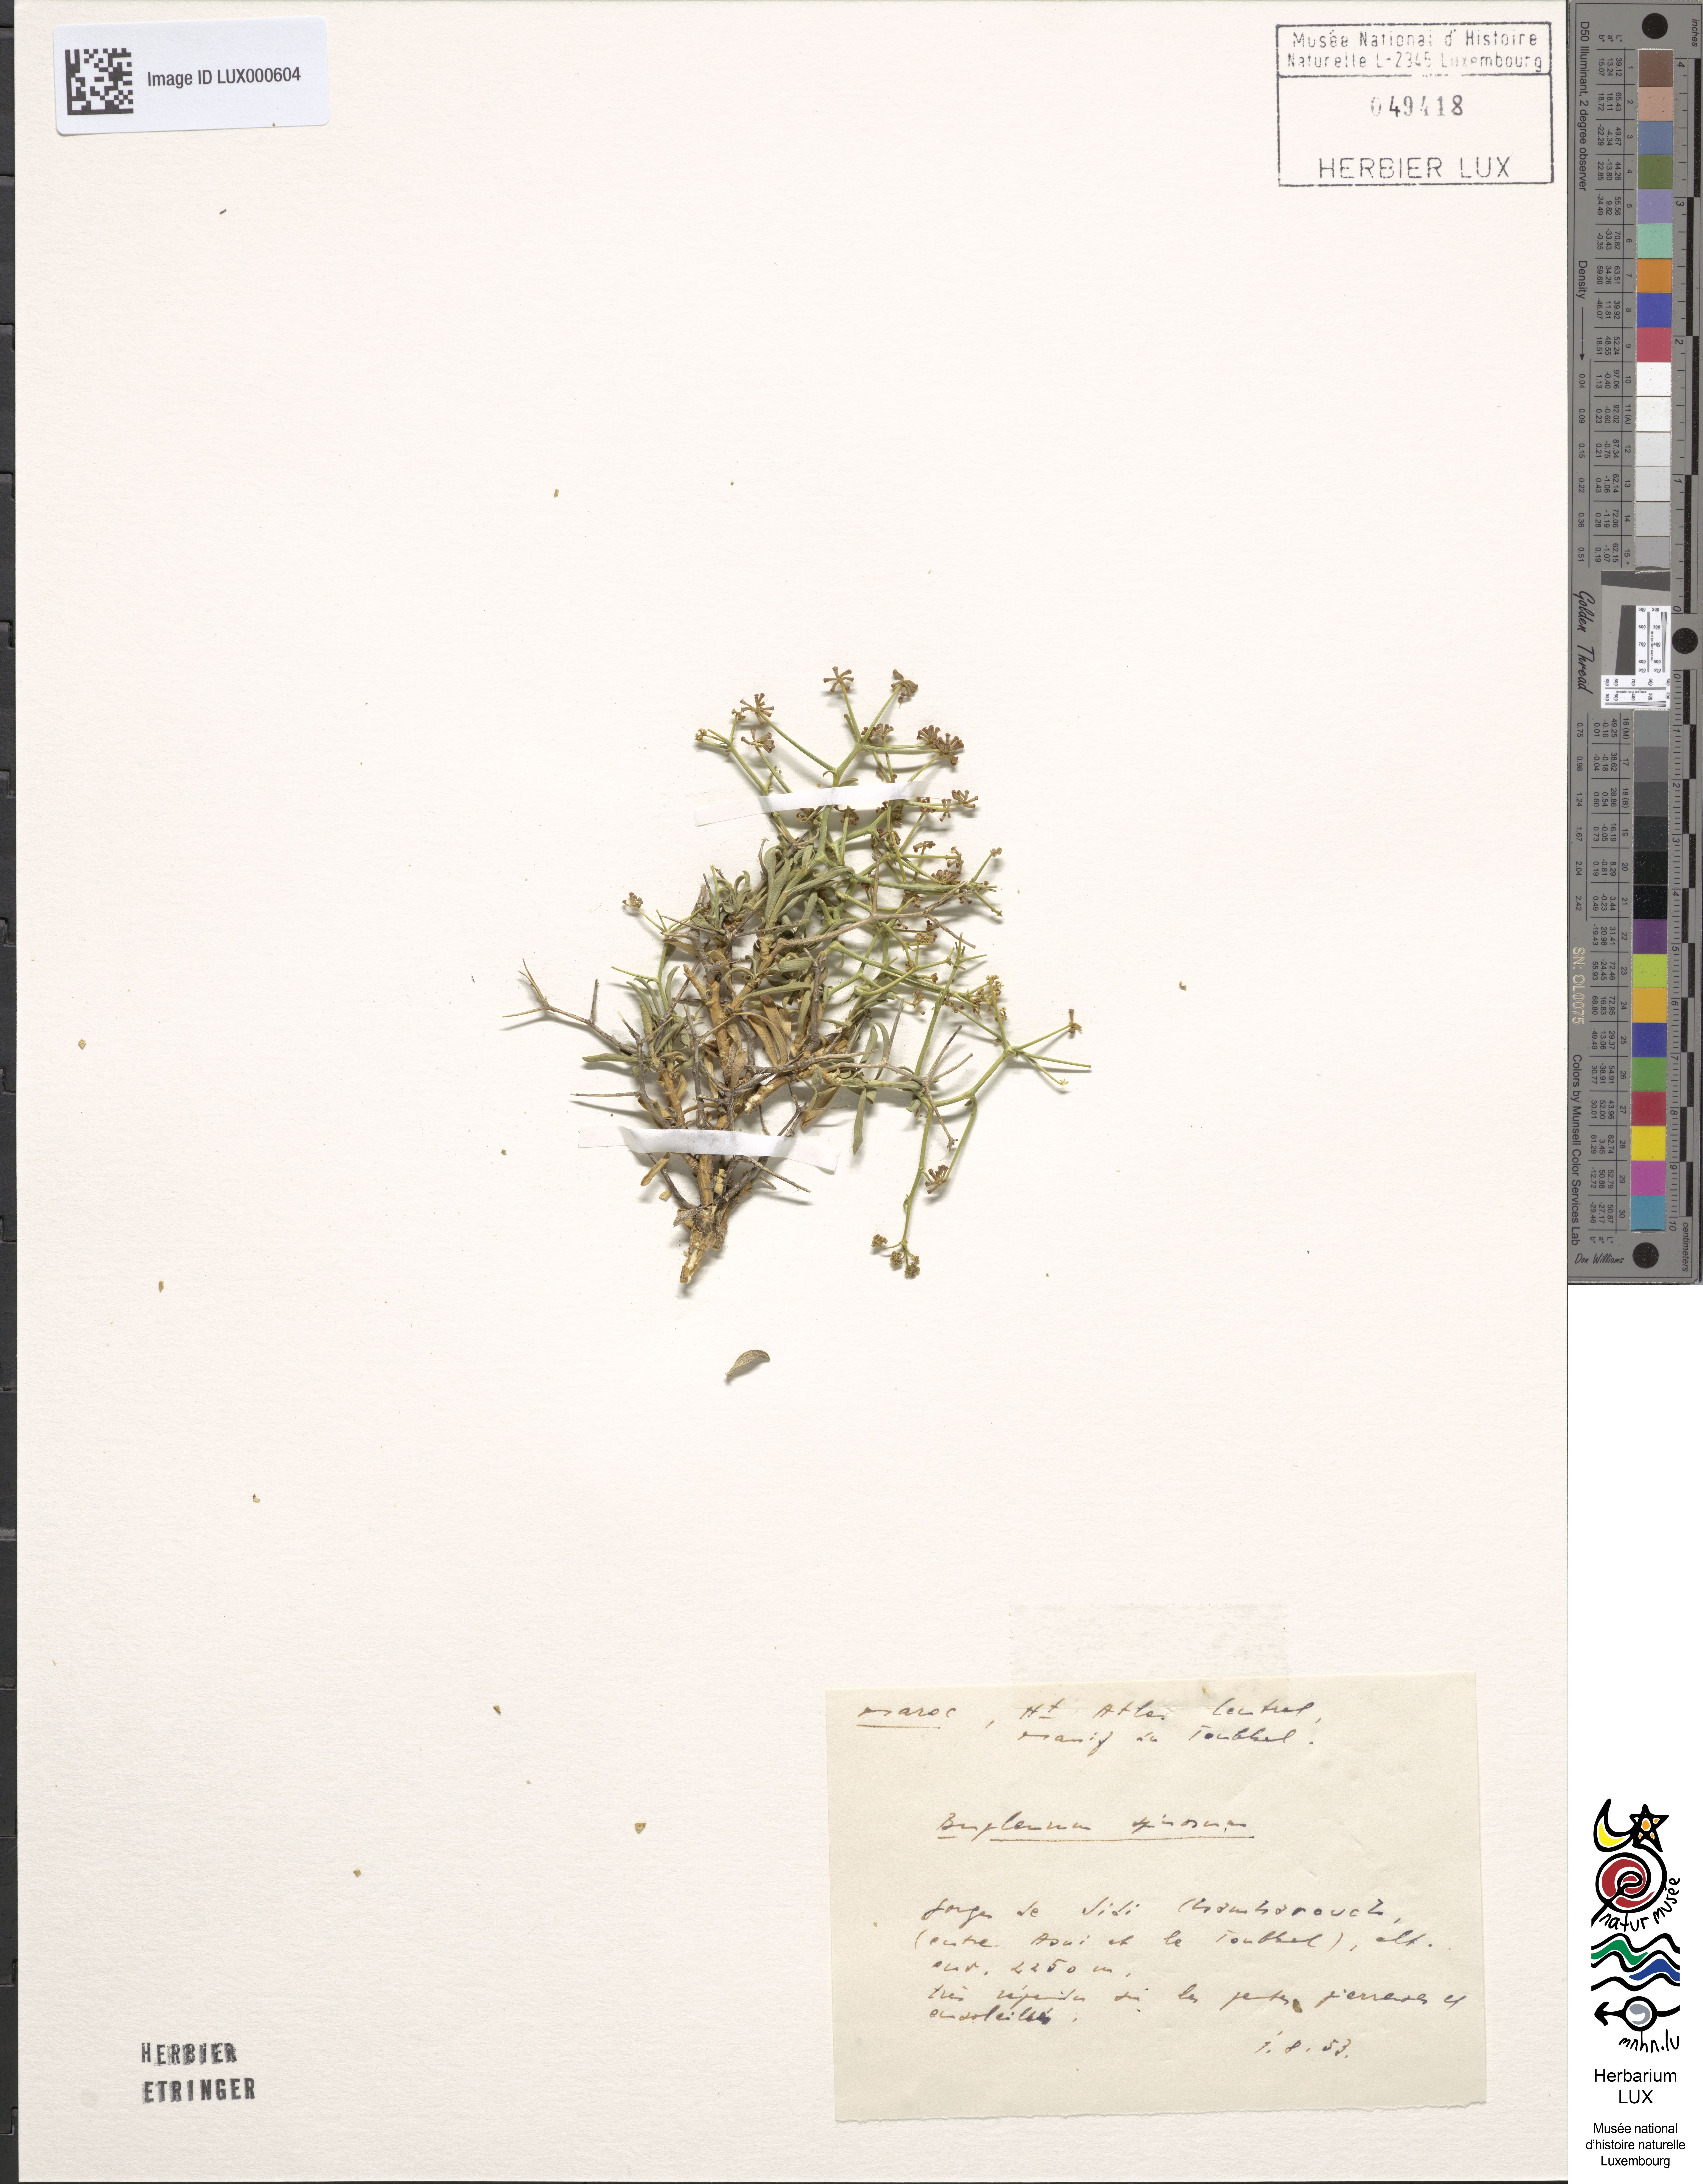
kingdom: Plantae
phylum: Tracheophyta
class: Magnoliopsida
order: Apiales
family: Apiaceae
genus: Bupleurum
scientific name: Bupleurum fruticescens
